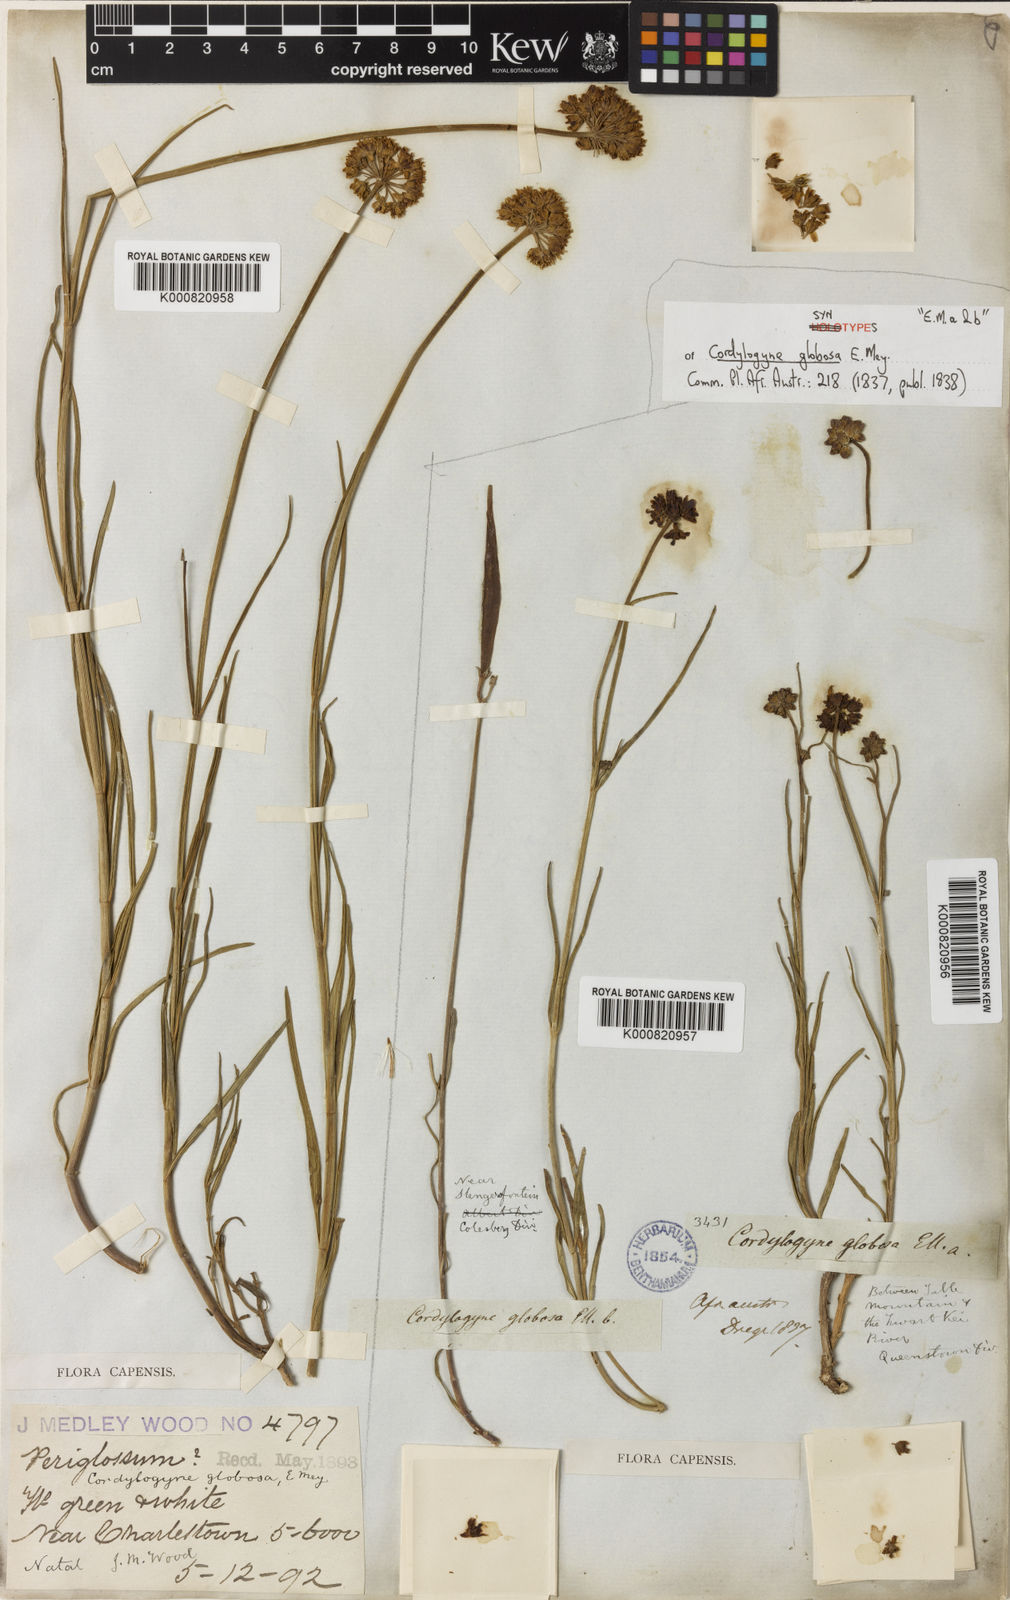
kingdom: Plantae
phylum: Tracheophyta
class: Magnoliopsida
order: Gentianales
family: Apocynaceae
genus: Cordylogyne
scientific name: Cordylogyne globosa
